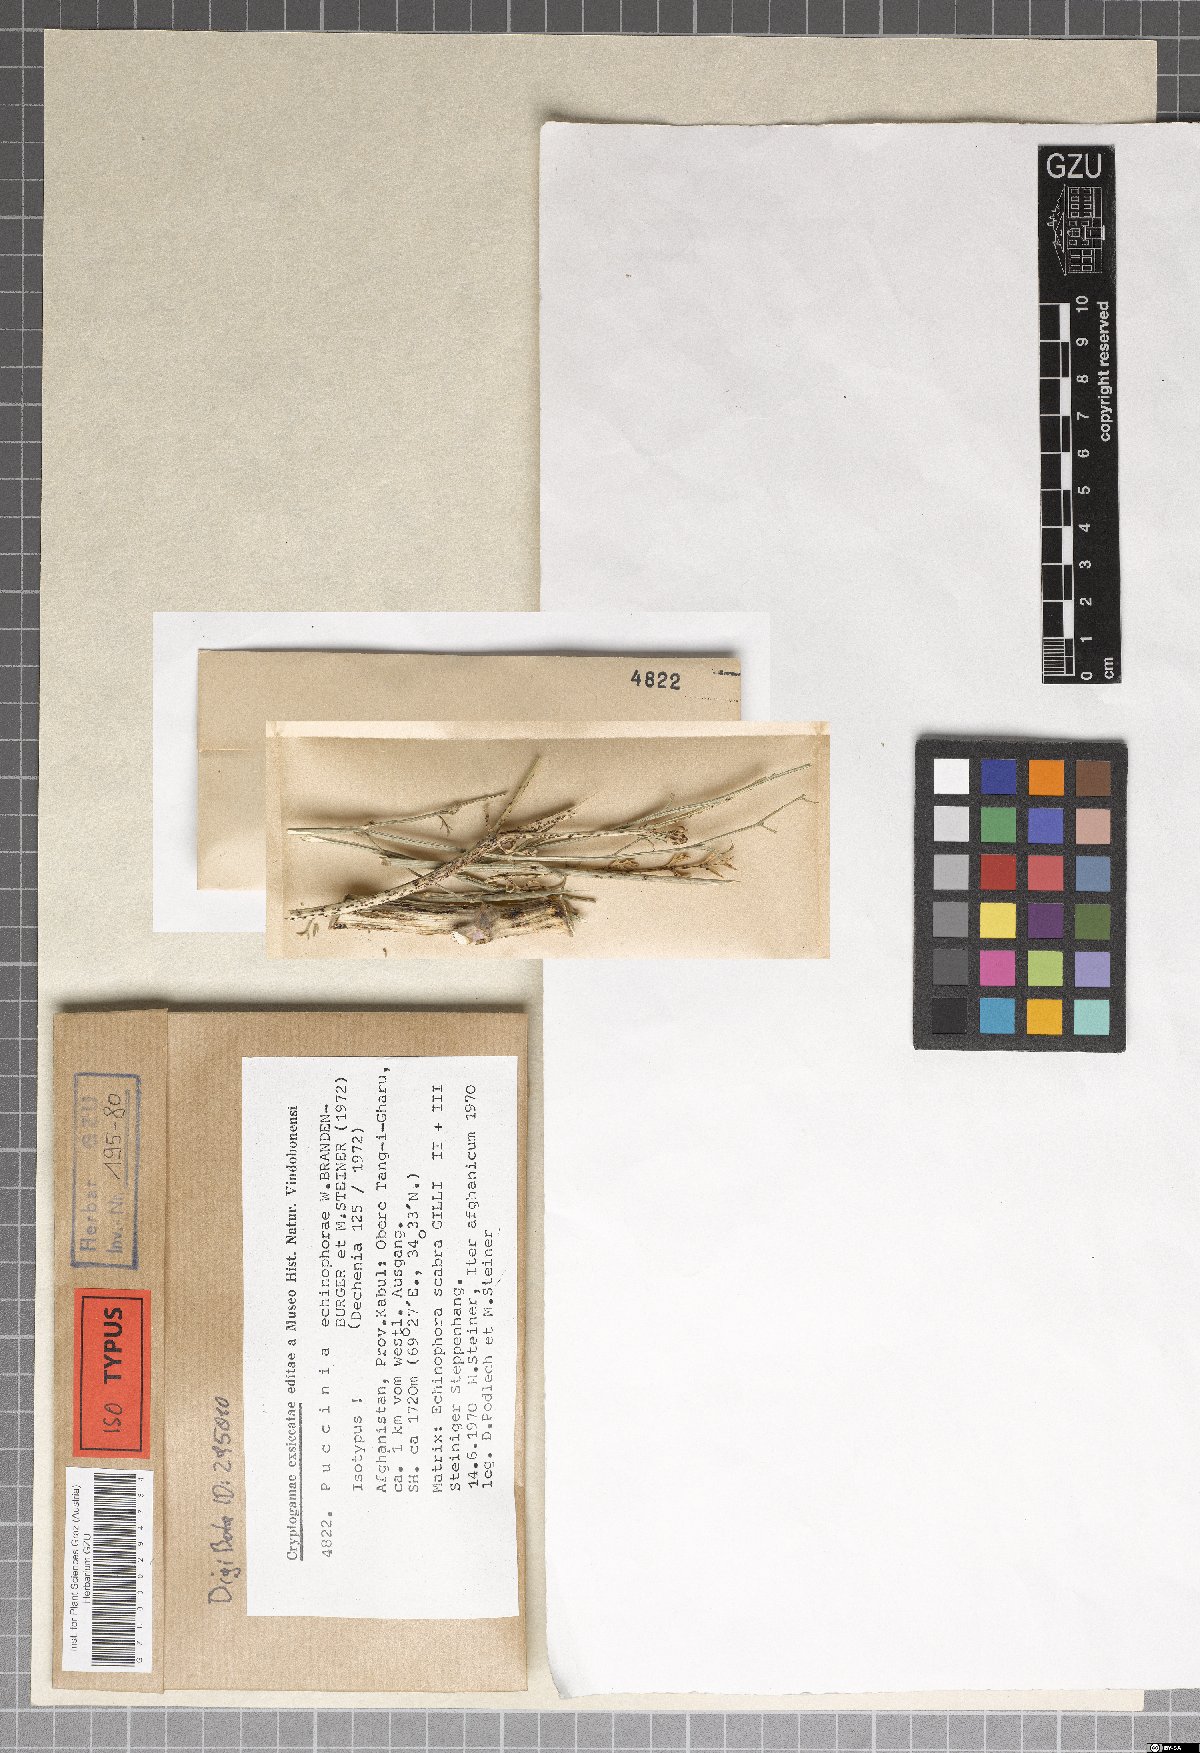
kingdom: Fungi
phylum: Basidiomycota
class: Pucciniomycetes
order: Pucciniales
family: Pucciniaceae
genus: Puccinia
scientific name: Puccinia echinophorae
